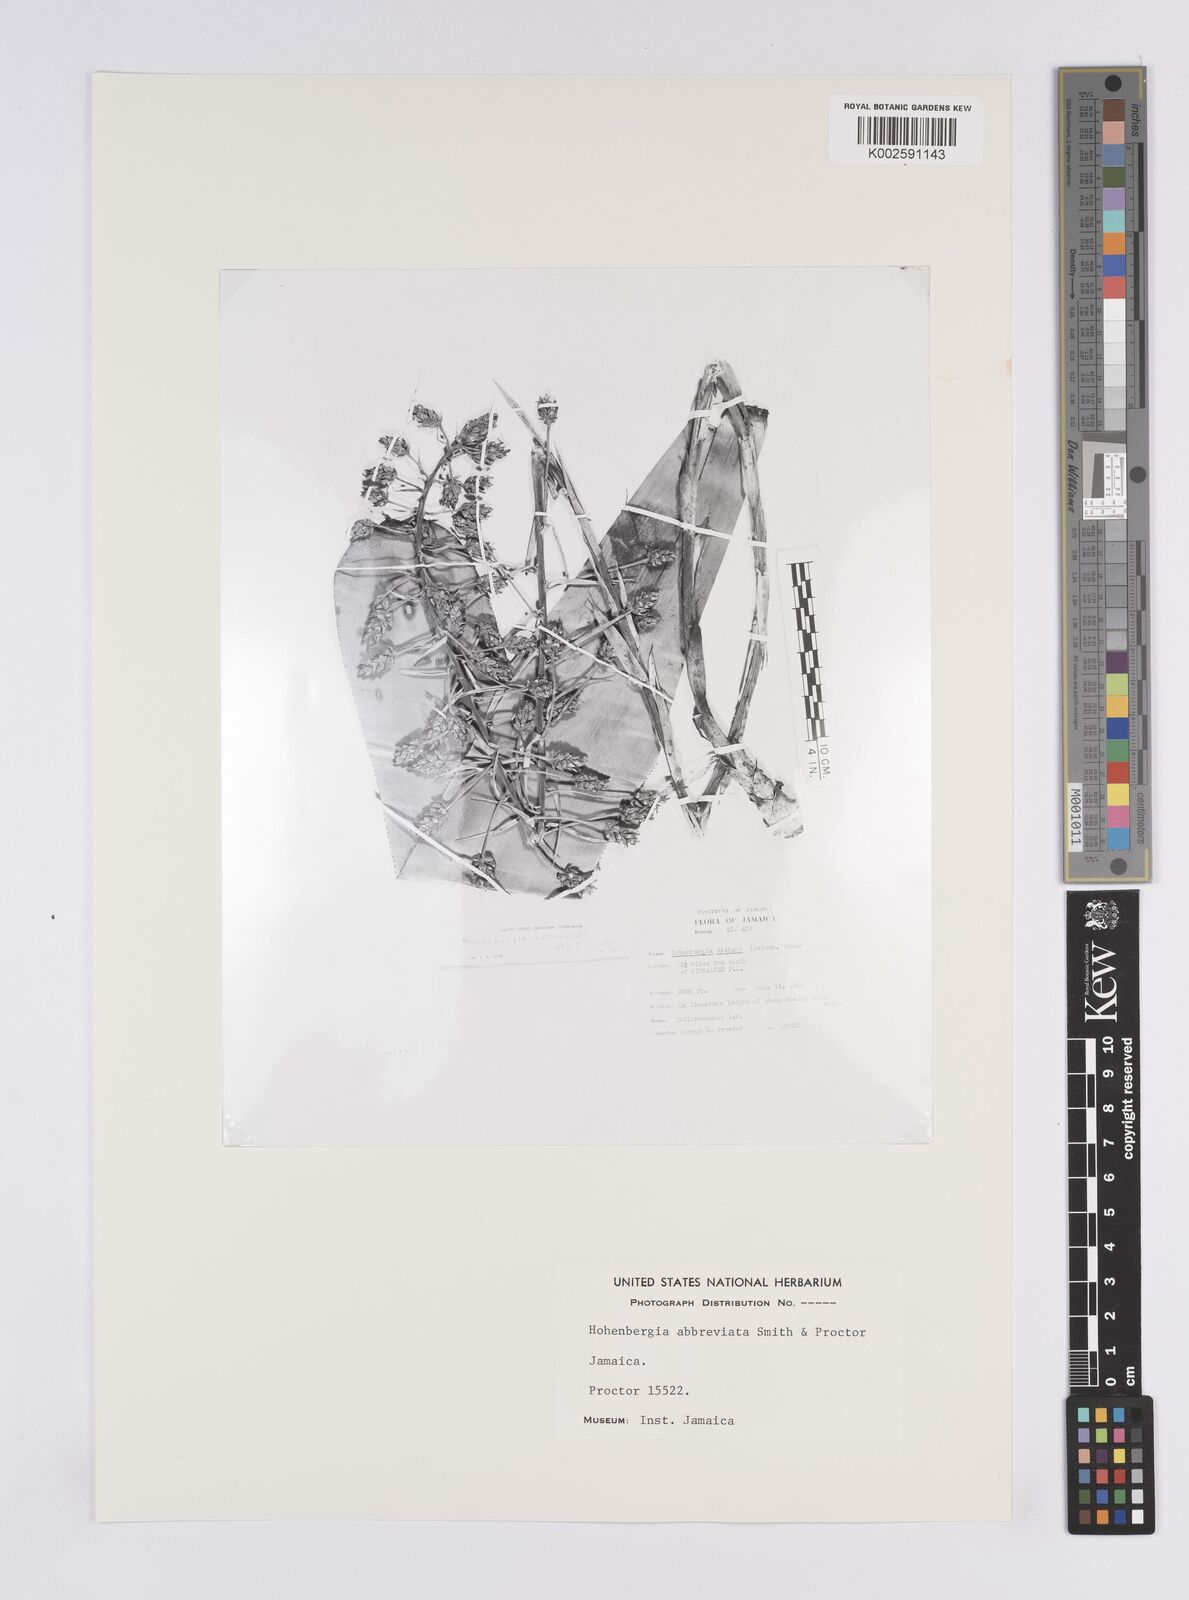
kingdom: Plantae
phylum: Tracheophyta
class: Liliopsida
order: Poales
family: Bromeliaceae
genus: Wittmackia
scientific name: Wittmackia abbreviata
